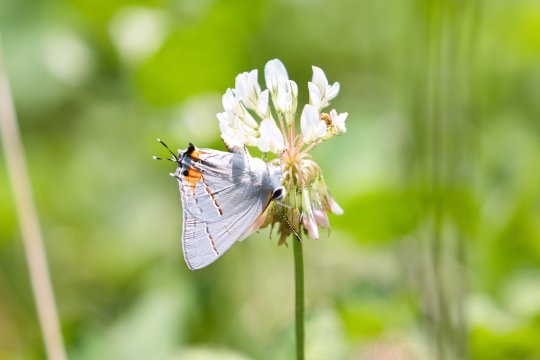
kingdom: Animalia
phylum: Arthropoda
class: Insecta
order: Lepidoptera
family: Lycaenidae
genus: Strymon
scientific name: Strymon melinus
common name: Gray Hairstreak
